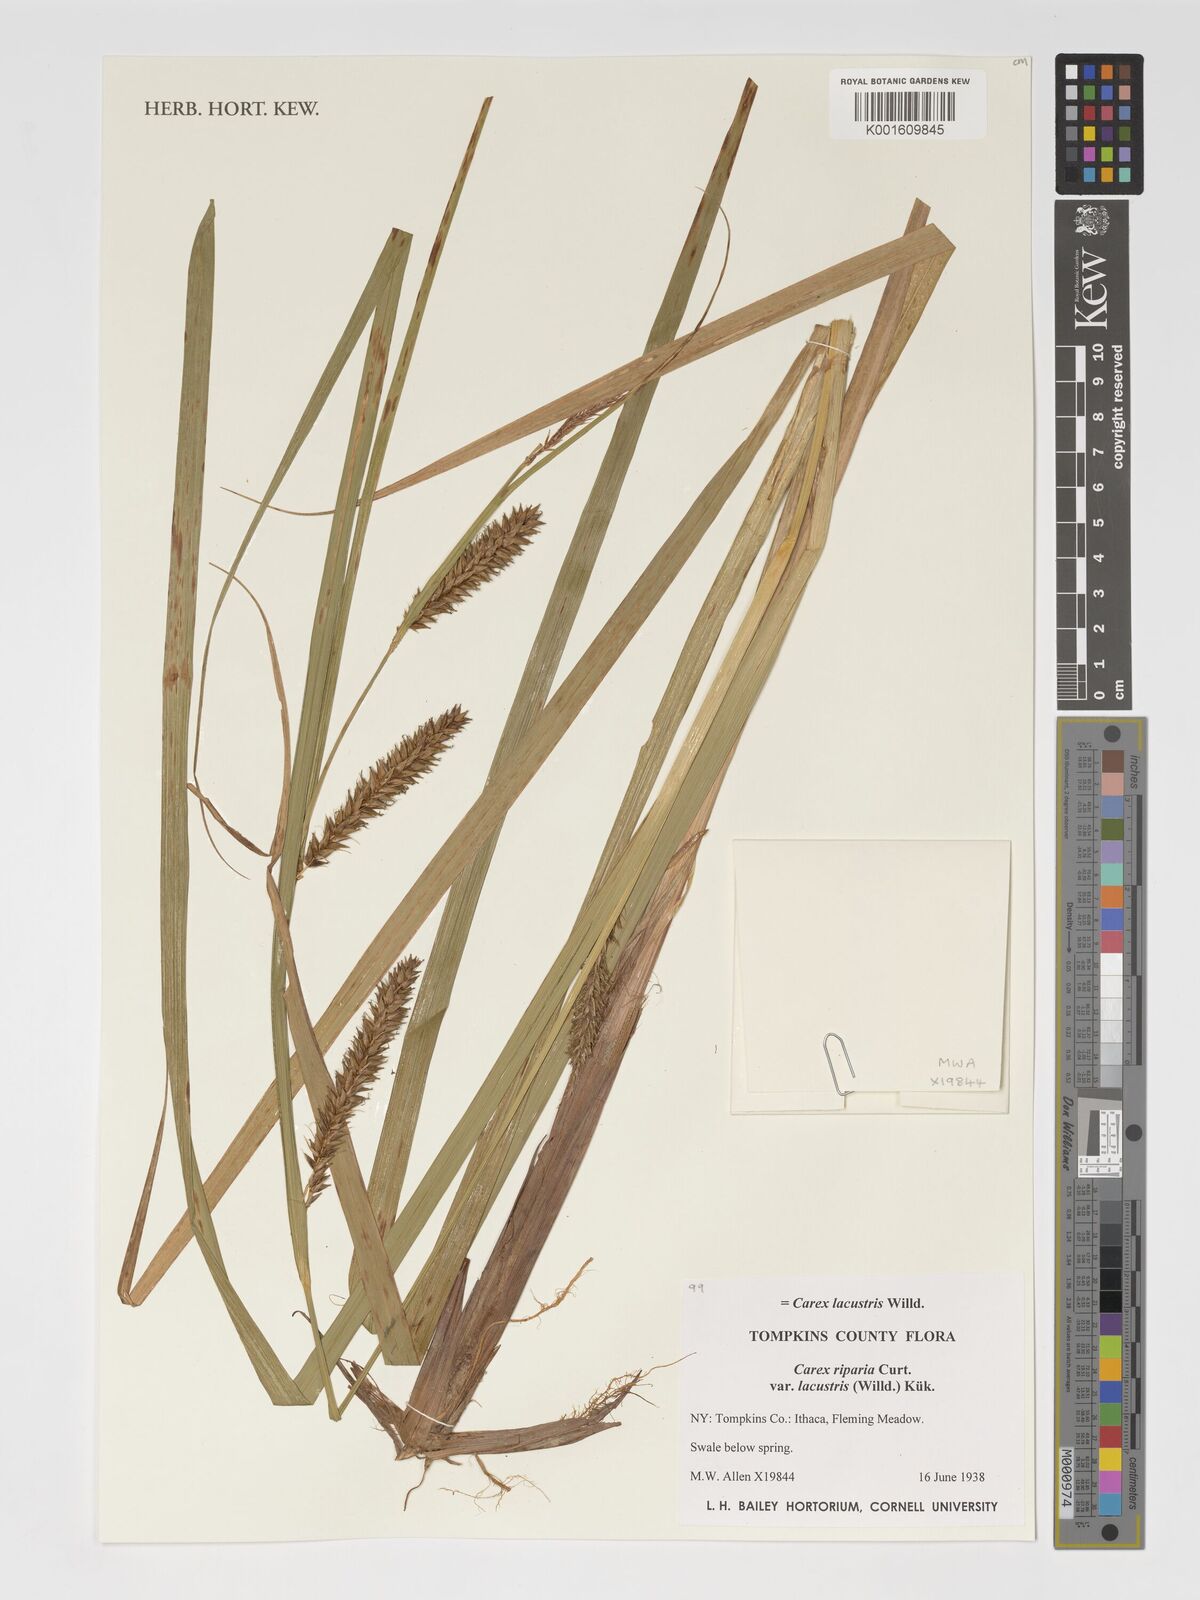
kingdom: Plantae
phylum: Tracheophyta
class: Liliopsida
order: Poales
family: Cyperaceae
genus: Carex
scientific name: Carex lacustris
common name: Common lake sedge
